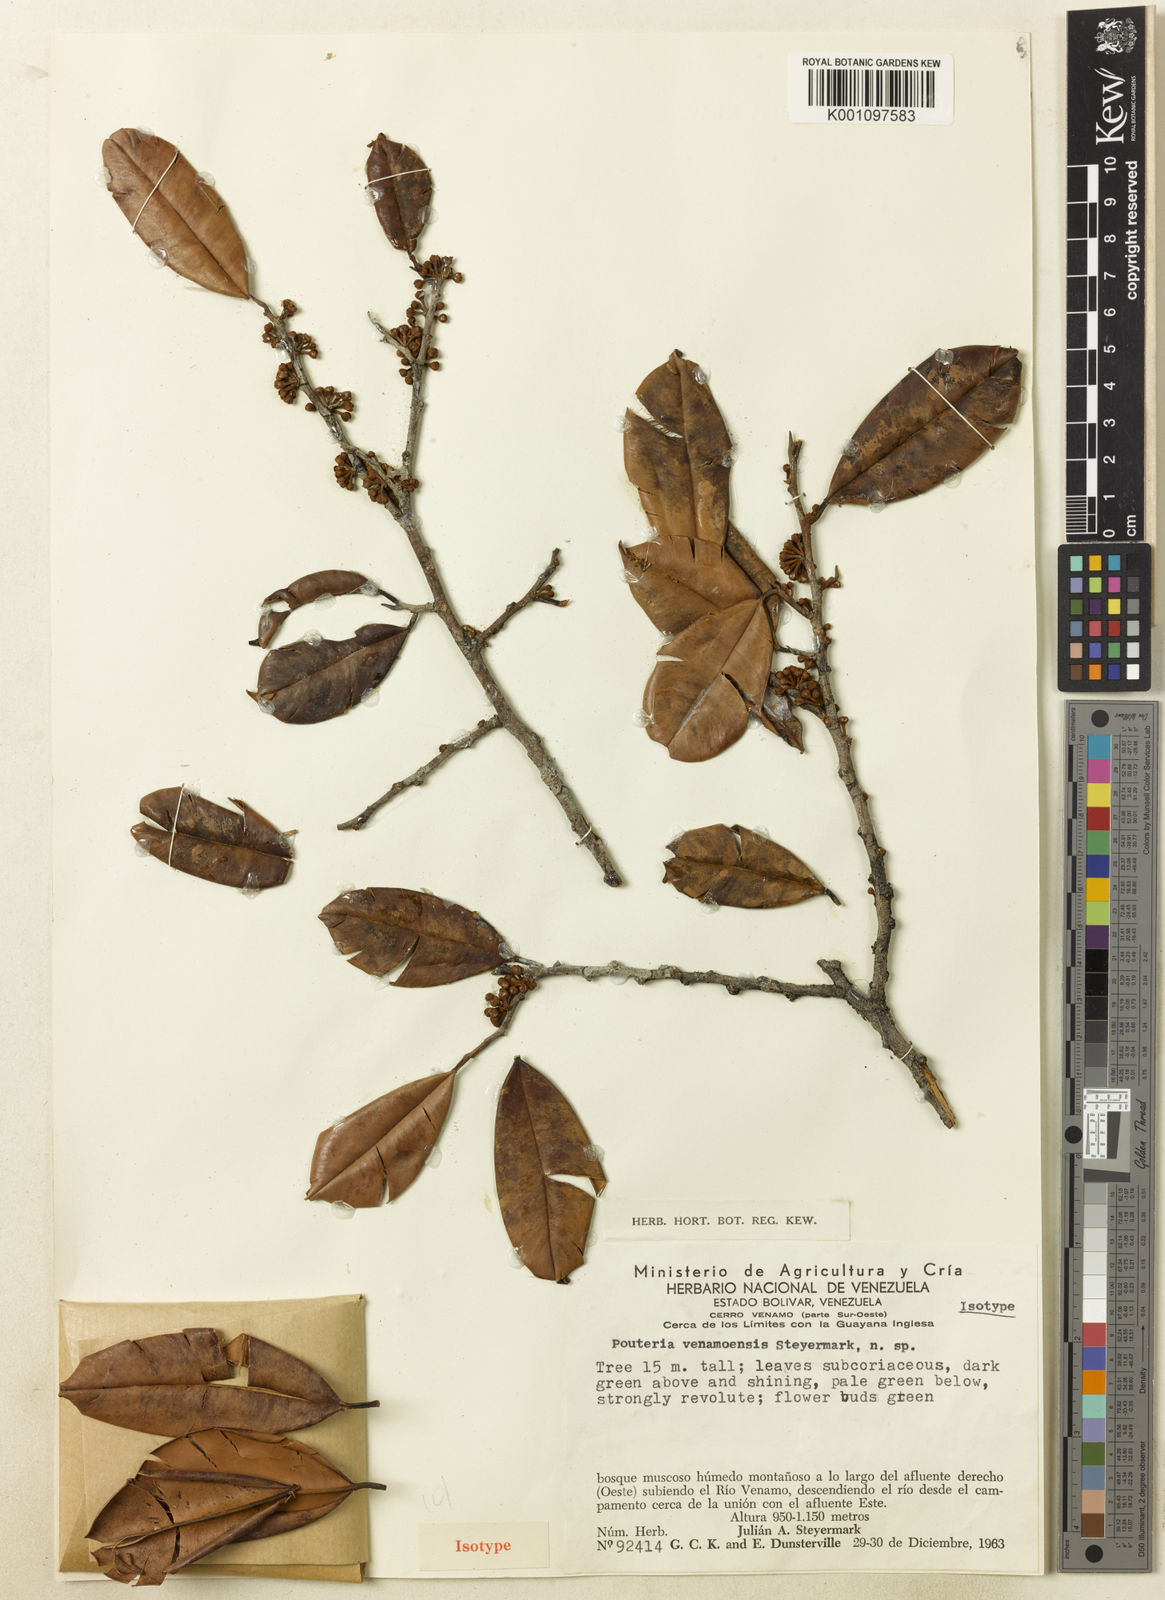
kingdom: Plantae
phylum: Tracheophyta
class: Magnoliopsida
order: Ericales
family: Sapotaceae
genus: Micropholis
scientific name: Micropholis venamoensis
